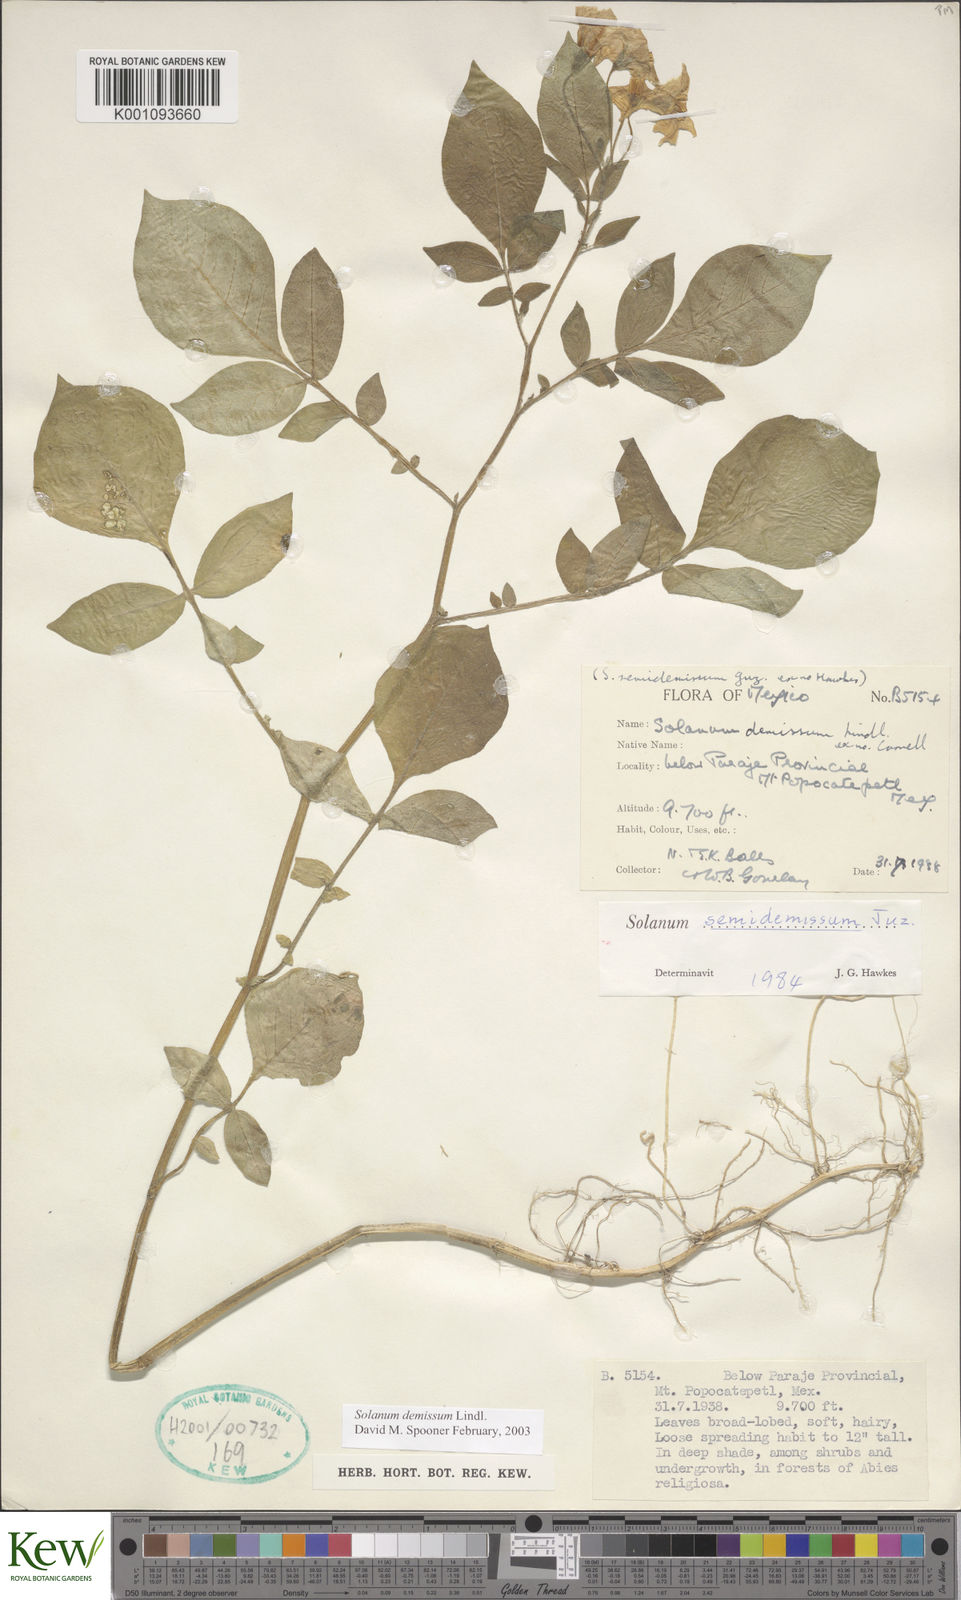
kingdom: Plantae
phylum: Tracheophyta
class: Magnoliopsida
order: Solanales
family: Solanaceae
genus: Solanum
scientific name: Solanum demissum
